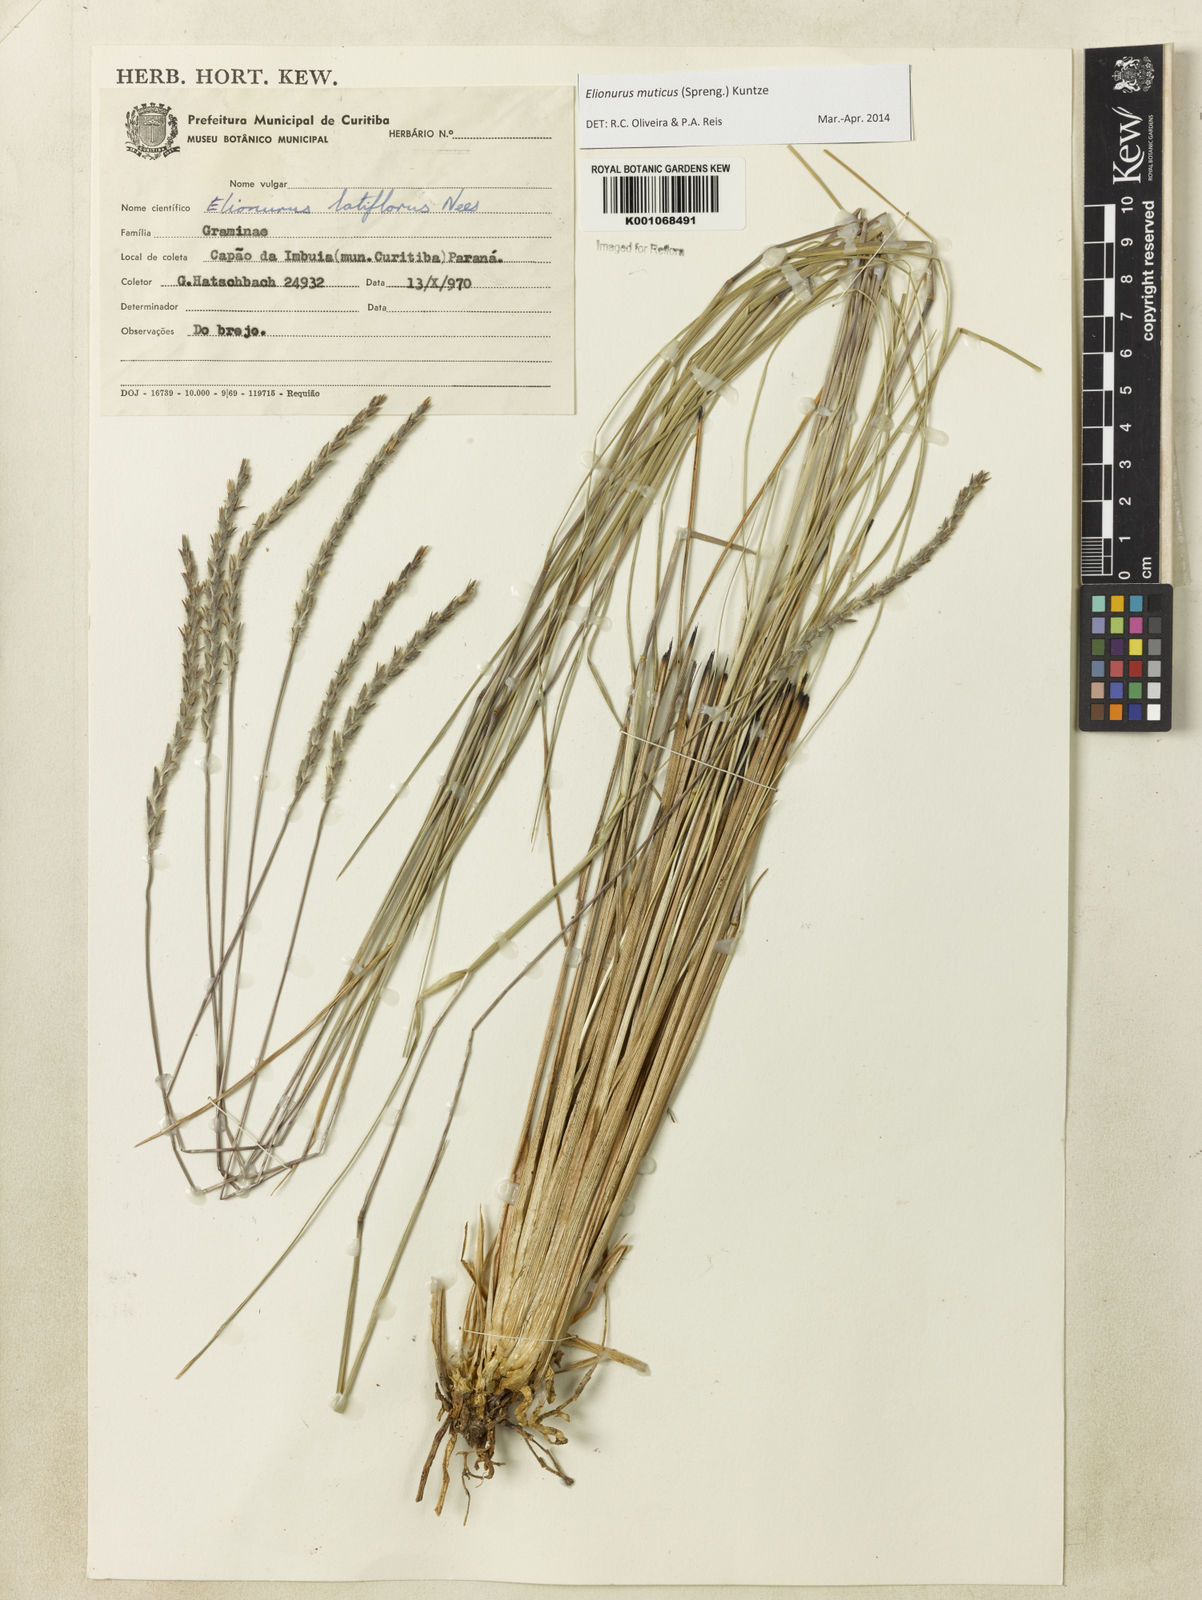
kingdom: Plantae
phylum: Tracheophyta
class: Liliopsida
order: Poales
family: Poaceae
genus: Elionurus
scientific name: Elionurus muticus
